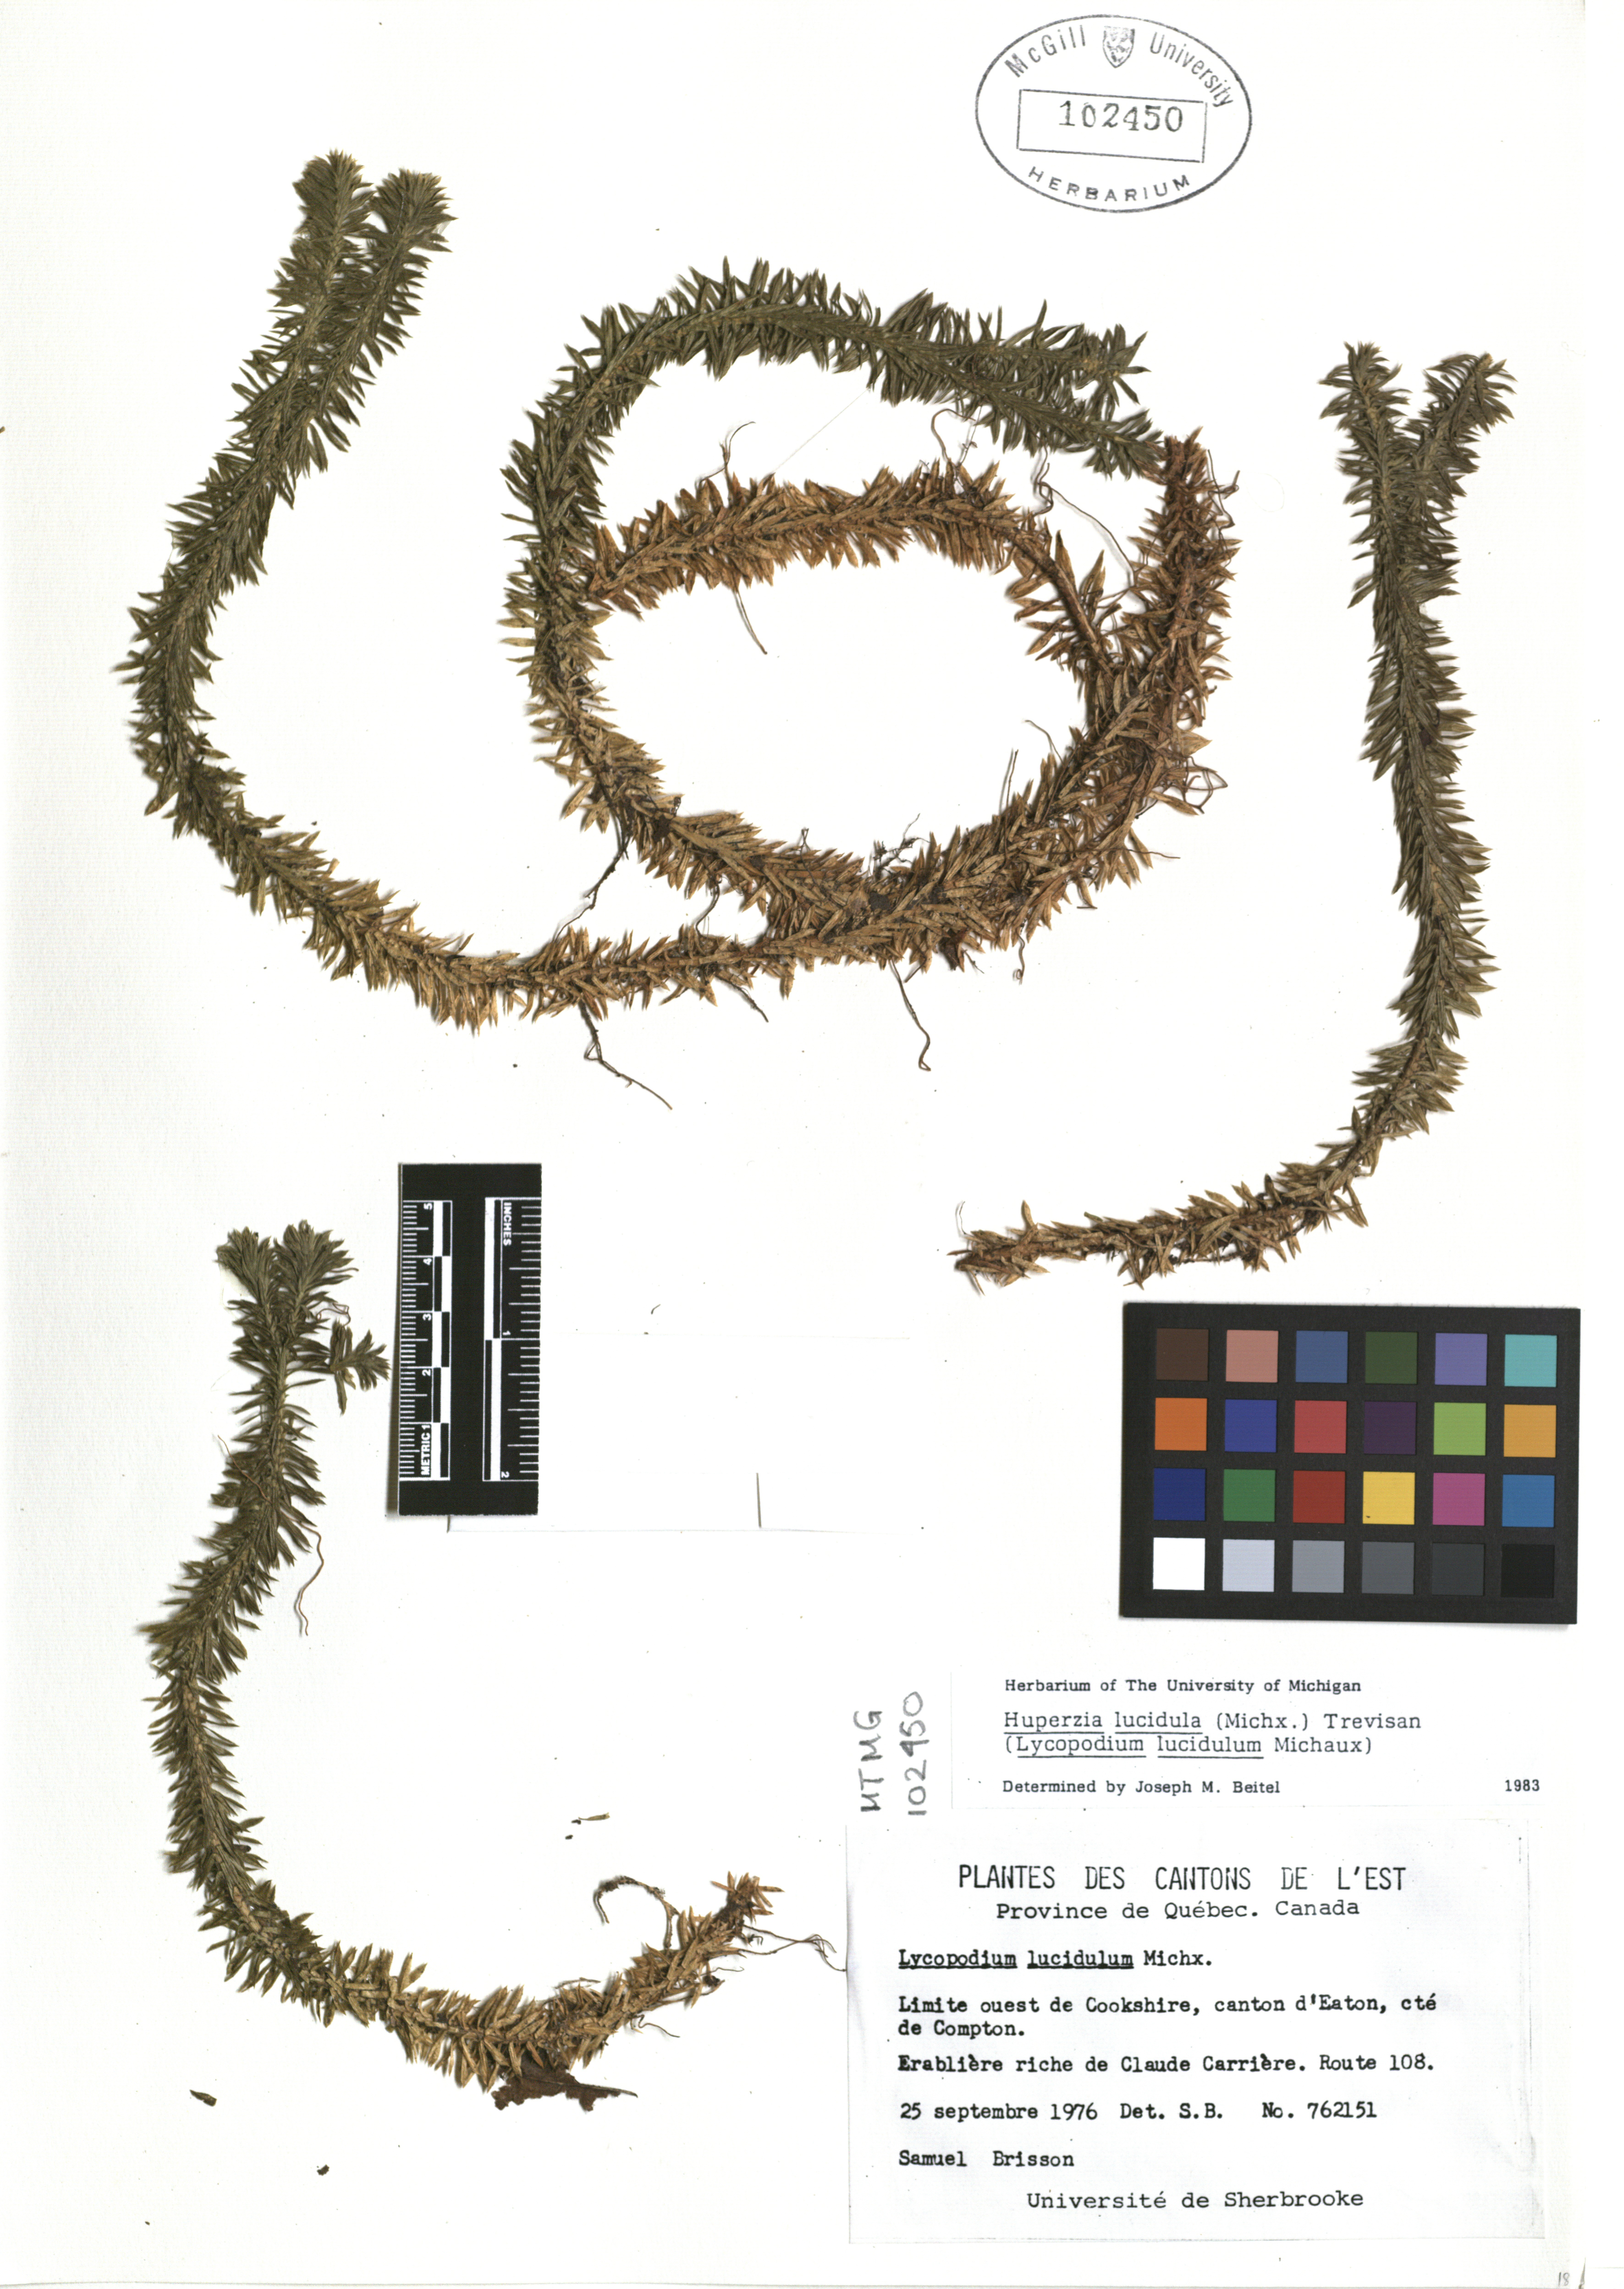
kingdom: Plantae
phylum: Tracheophyta
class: Lycopodiopsida
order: Lycopodiales
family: Lycopodiaceae
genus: Huperzia
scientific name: Huperzia lucidula
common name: Shining clubmoss
